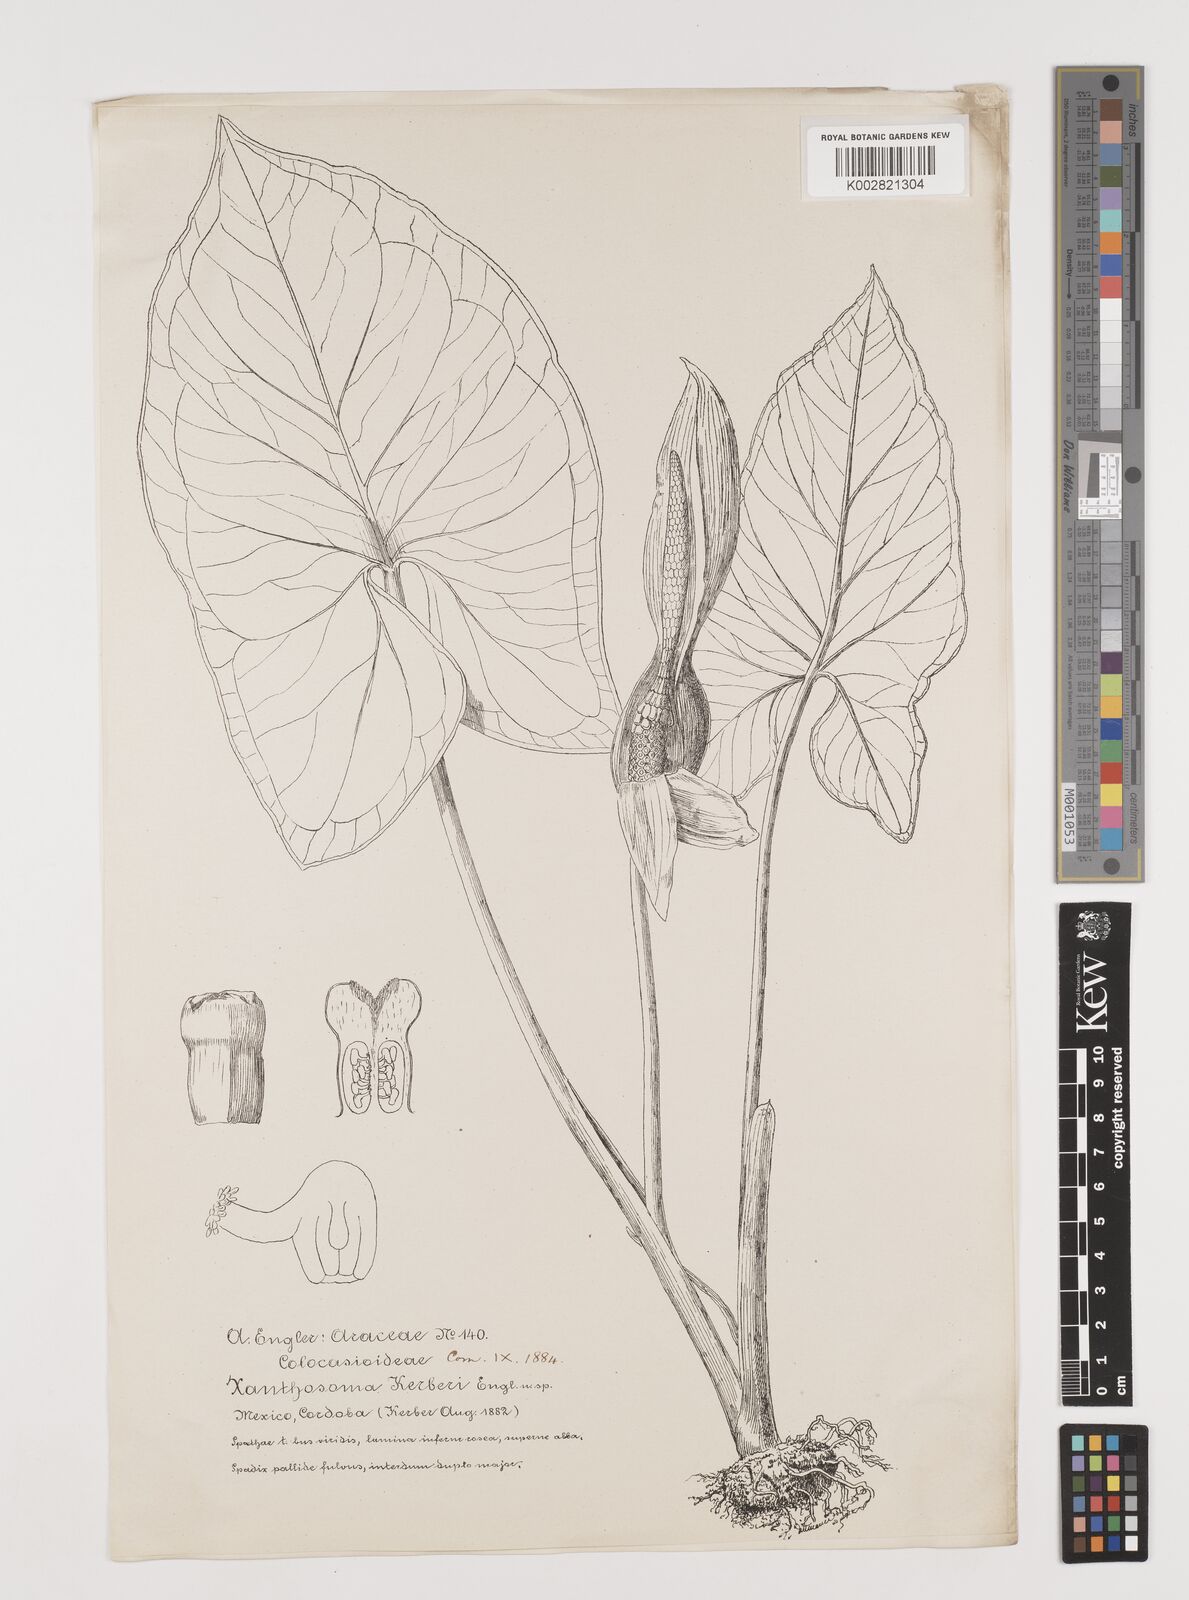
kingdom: Plantae
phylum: Tracheophyta
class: Liliopsida
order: Alismatales
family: Araceae
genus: Xanthosoma
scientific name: Xanthosoma mexicanum
